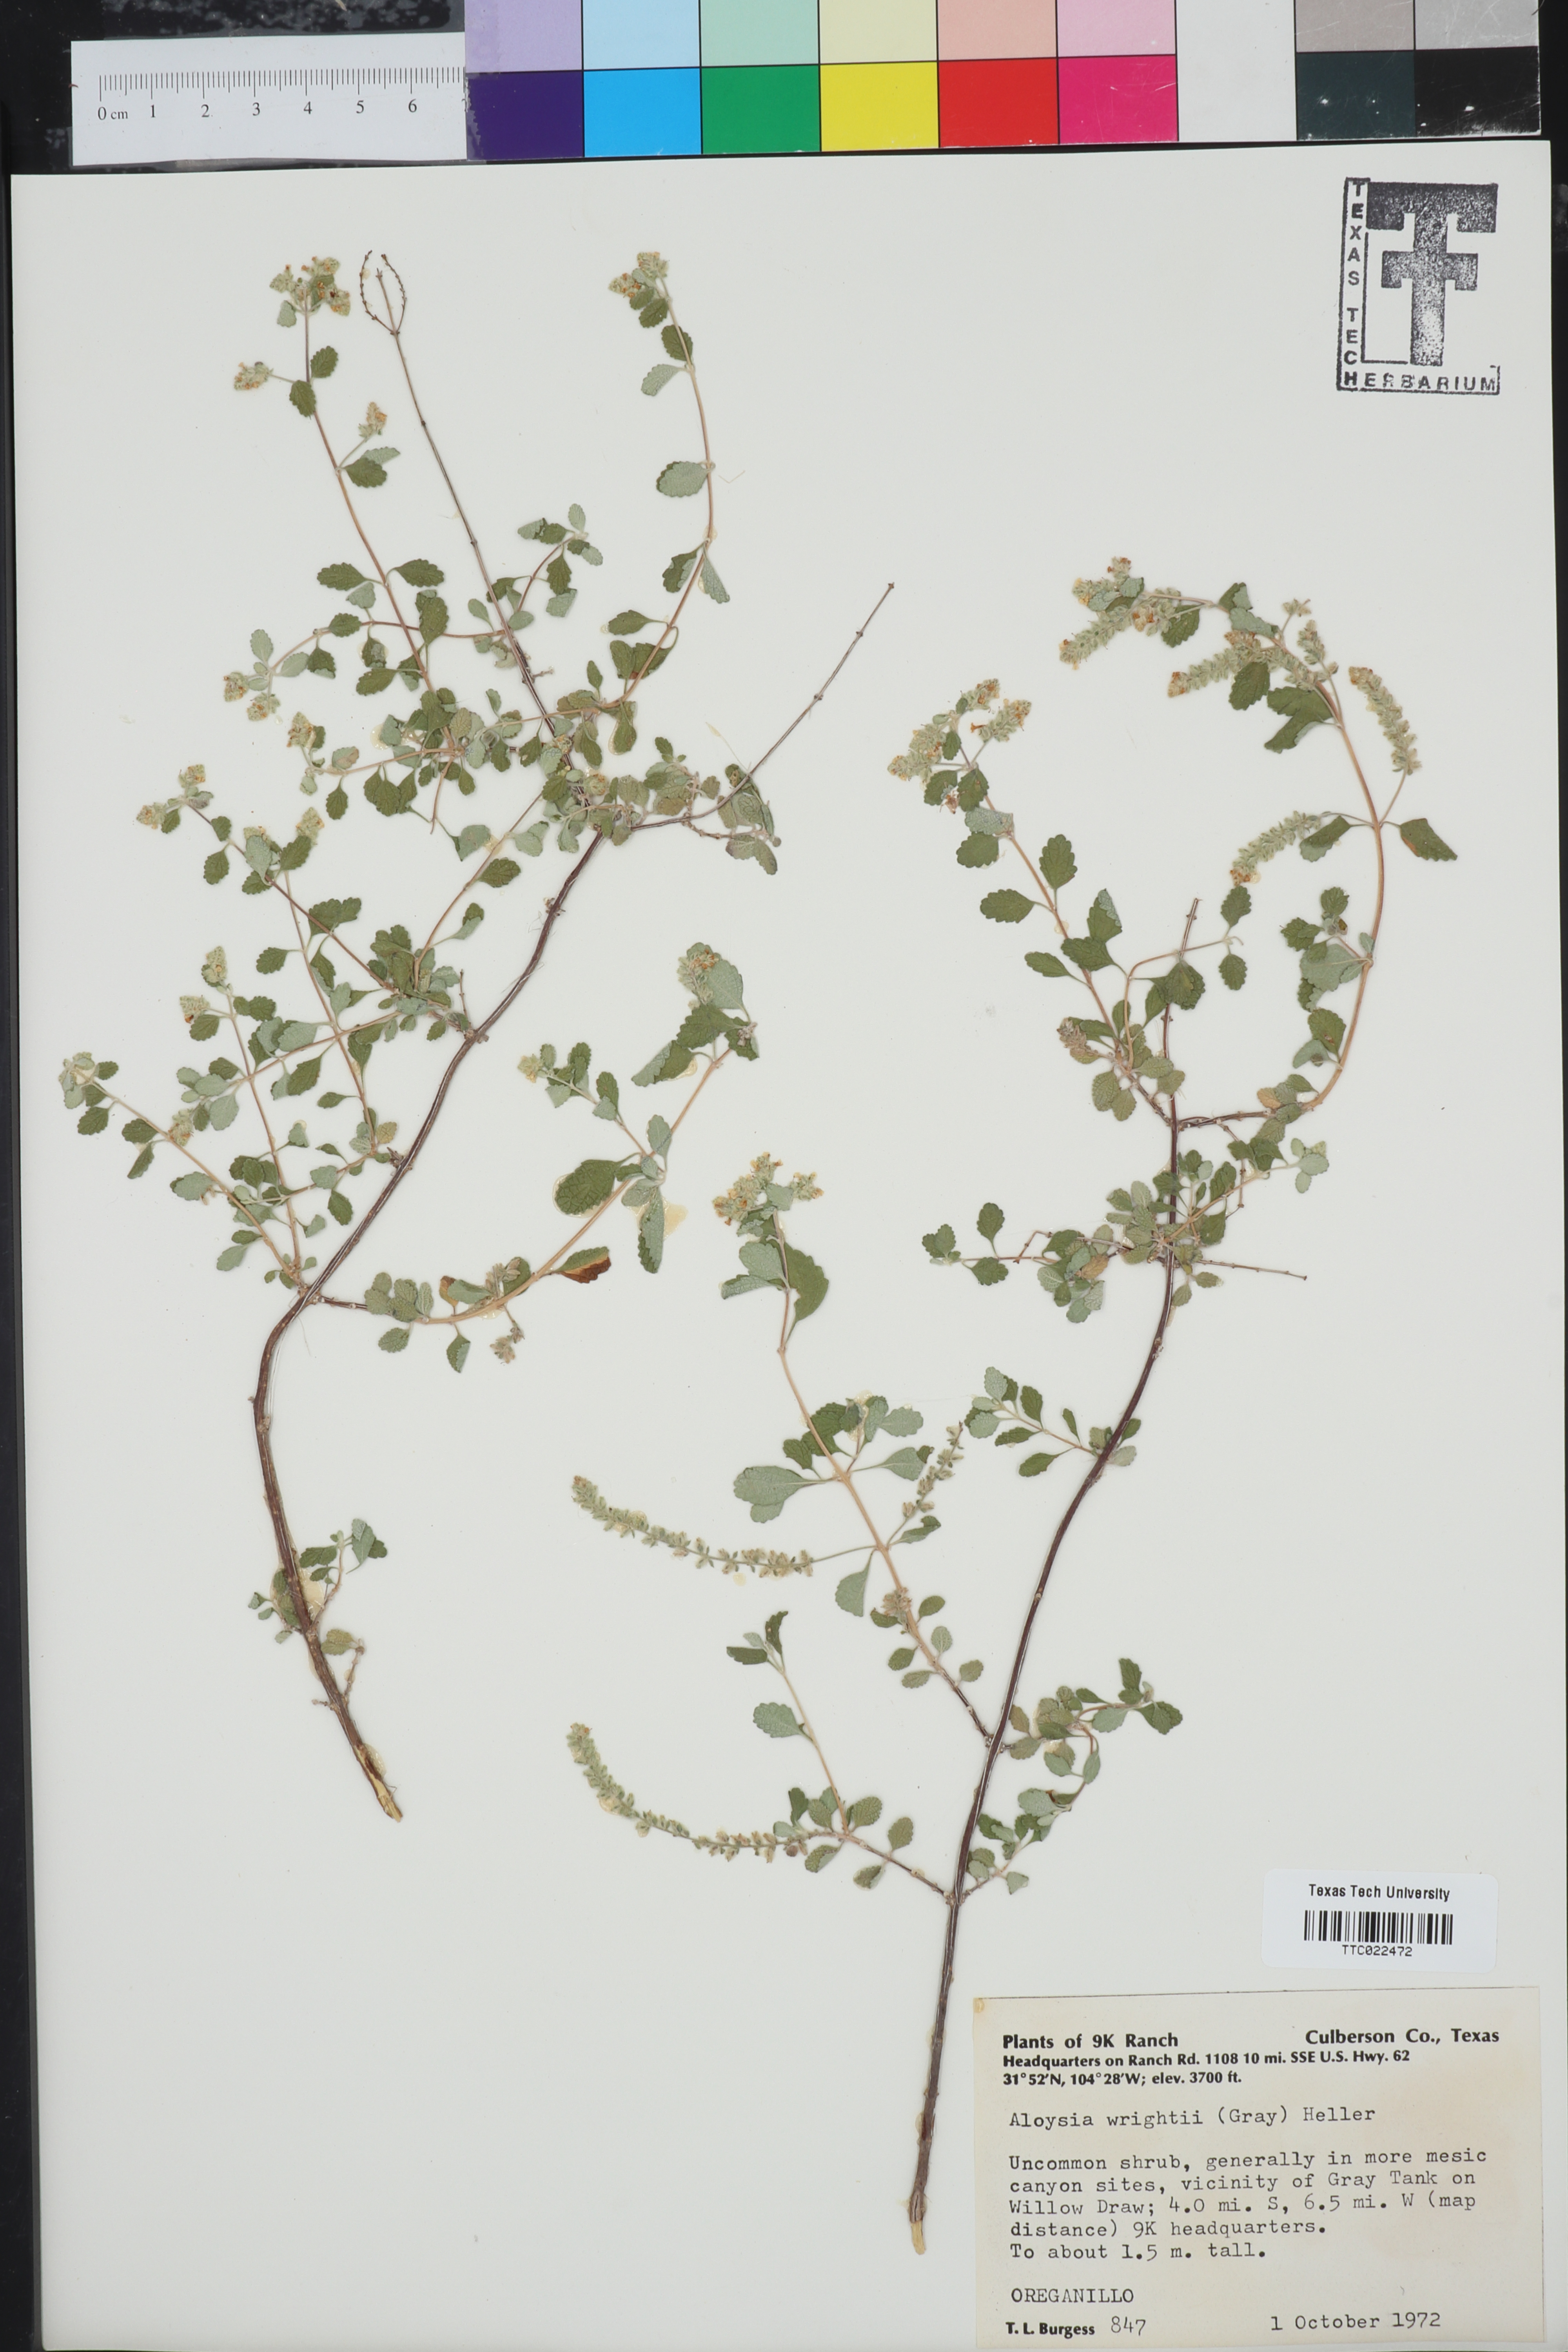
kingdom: Plantae
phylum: Tracheophyta
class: Magnoliopsida
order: Lamiales
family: Verbenaceae
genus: Aloysia
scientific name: Aloysia wrightii
